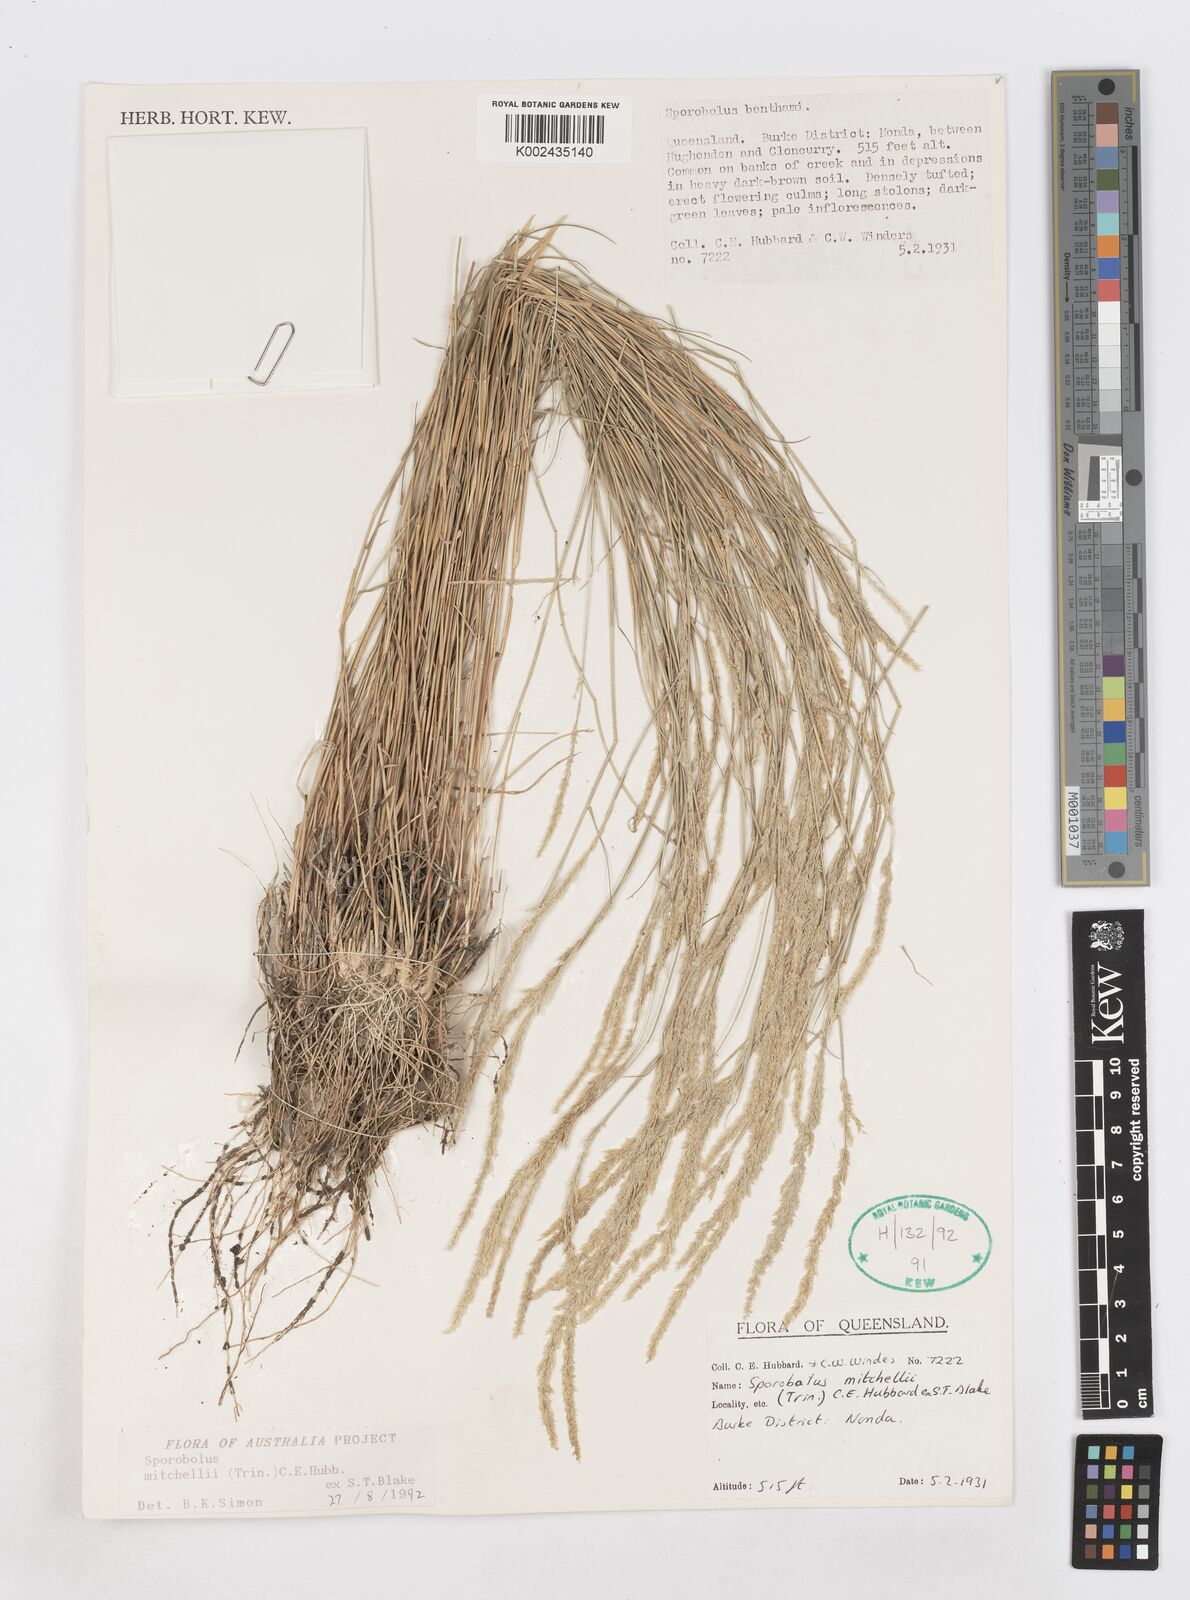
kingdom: Plantae
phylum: Tracheophyta
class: Liliopsida
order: Poales
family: Poaceae
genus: Sporobolus
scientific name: Sporobolus mitchellii
